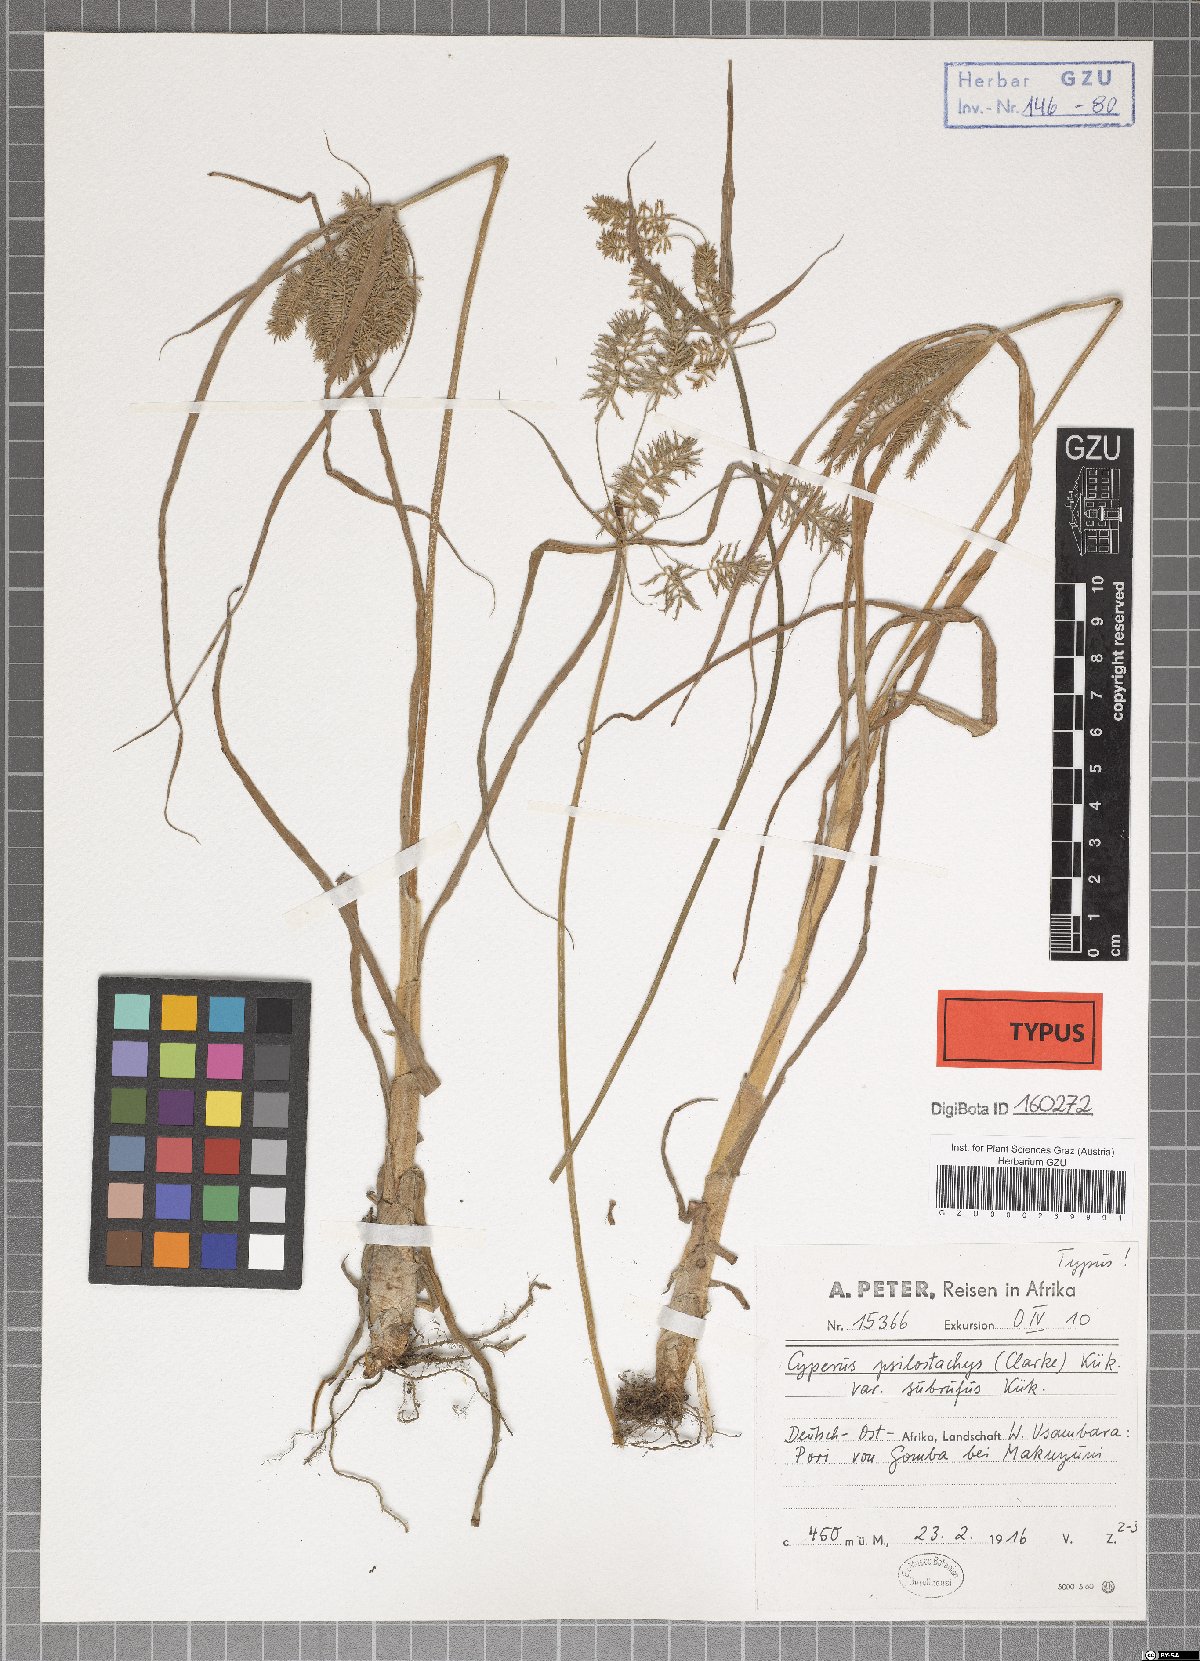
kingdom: Plantae
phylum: Tracheophyta
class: Liliopsida
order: Poales
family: Cyperaceae
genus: Cyperus
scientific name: Cyperus trigonellus
